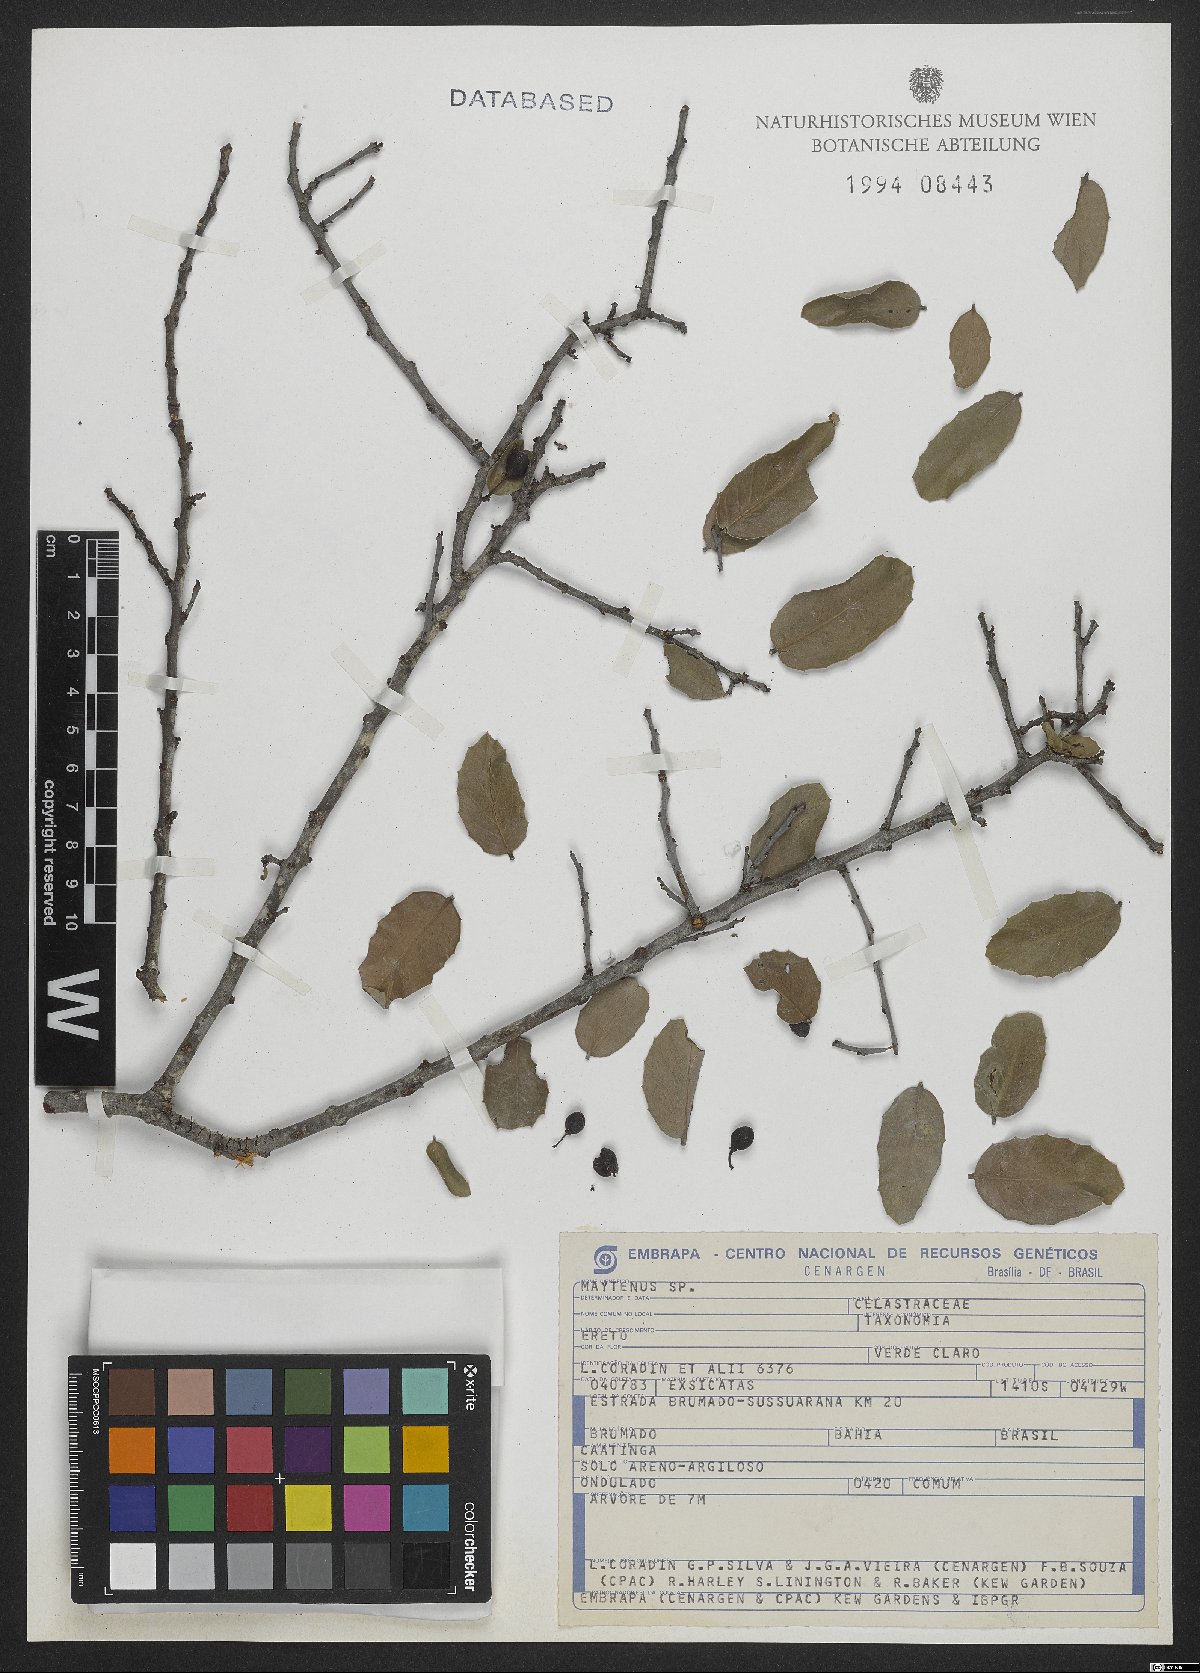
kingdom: Plantae
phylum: Tracheophyta
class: Magnoliopsida
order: Celastrales
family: Celastraceae
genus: Maytenus
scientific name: Maytenus
